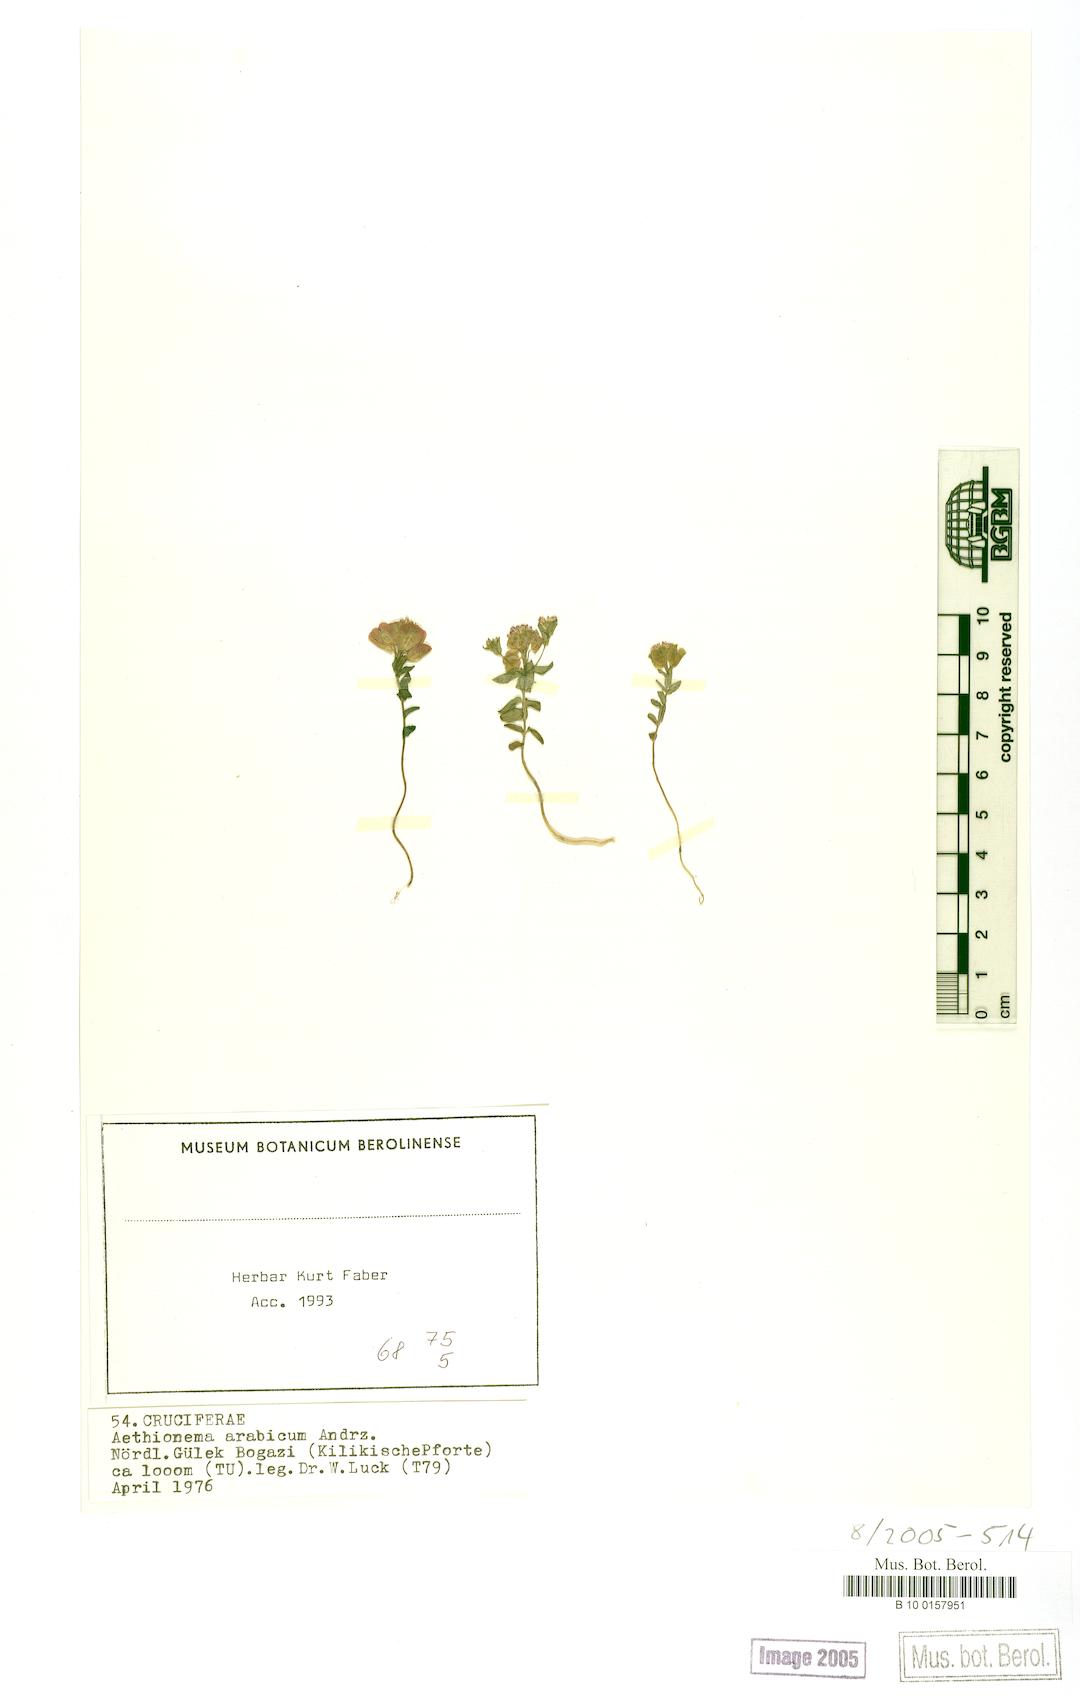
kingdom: Plantae
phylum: Tracheophyta
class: Magnoliopsida
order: Brassicales
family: Brassicaceae
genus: Aethionema
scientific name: Aethionema arabicum
